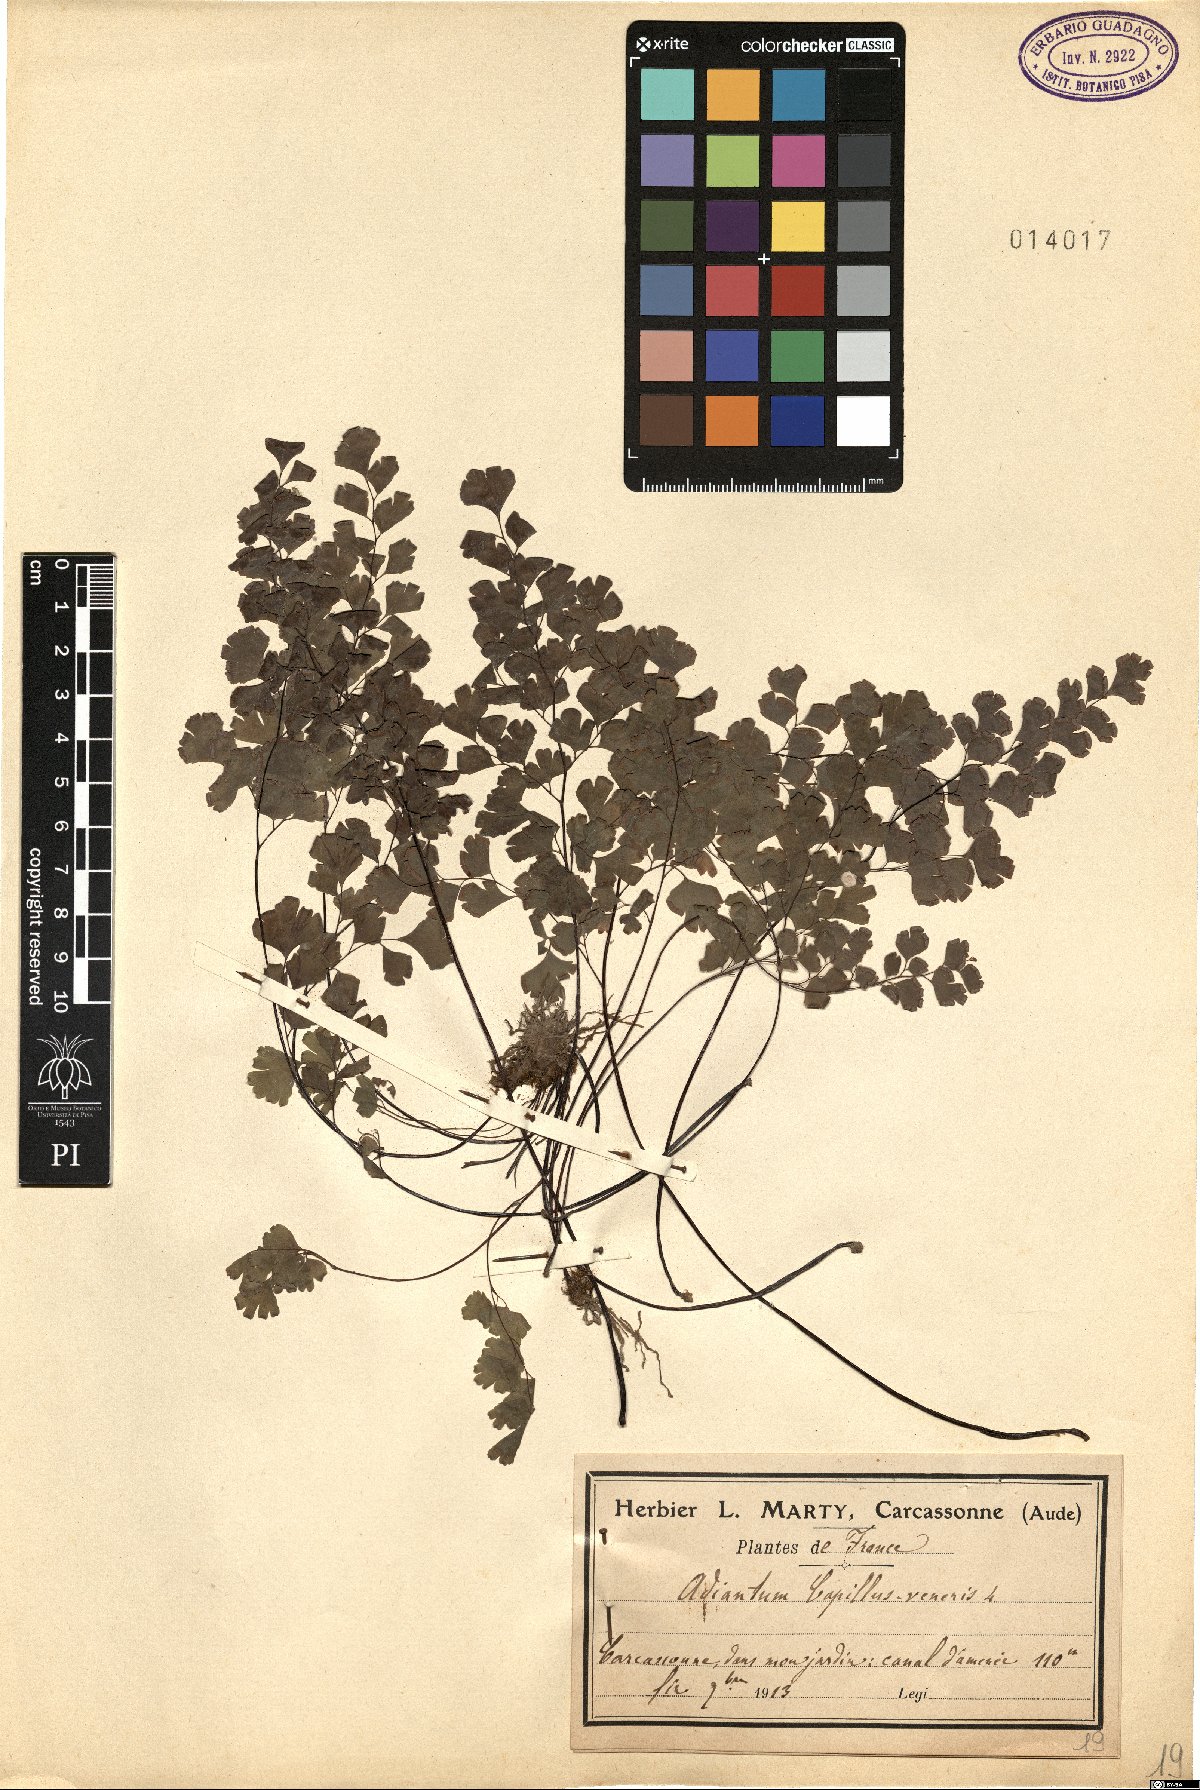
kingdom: Plantae
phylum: Tracheophyta
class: Polypodiopsida
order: Polypodiales
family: Pteridaceae
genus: Adiantum
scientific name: Adiantum capillus-veneris
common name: Maidenhair fern
